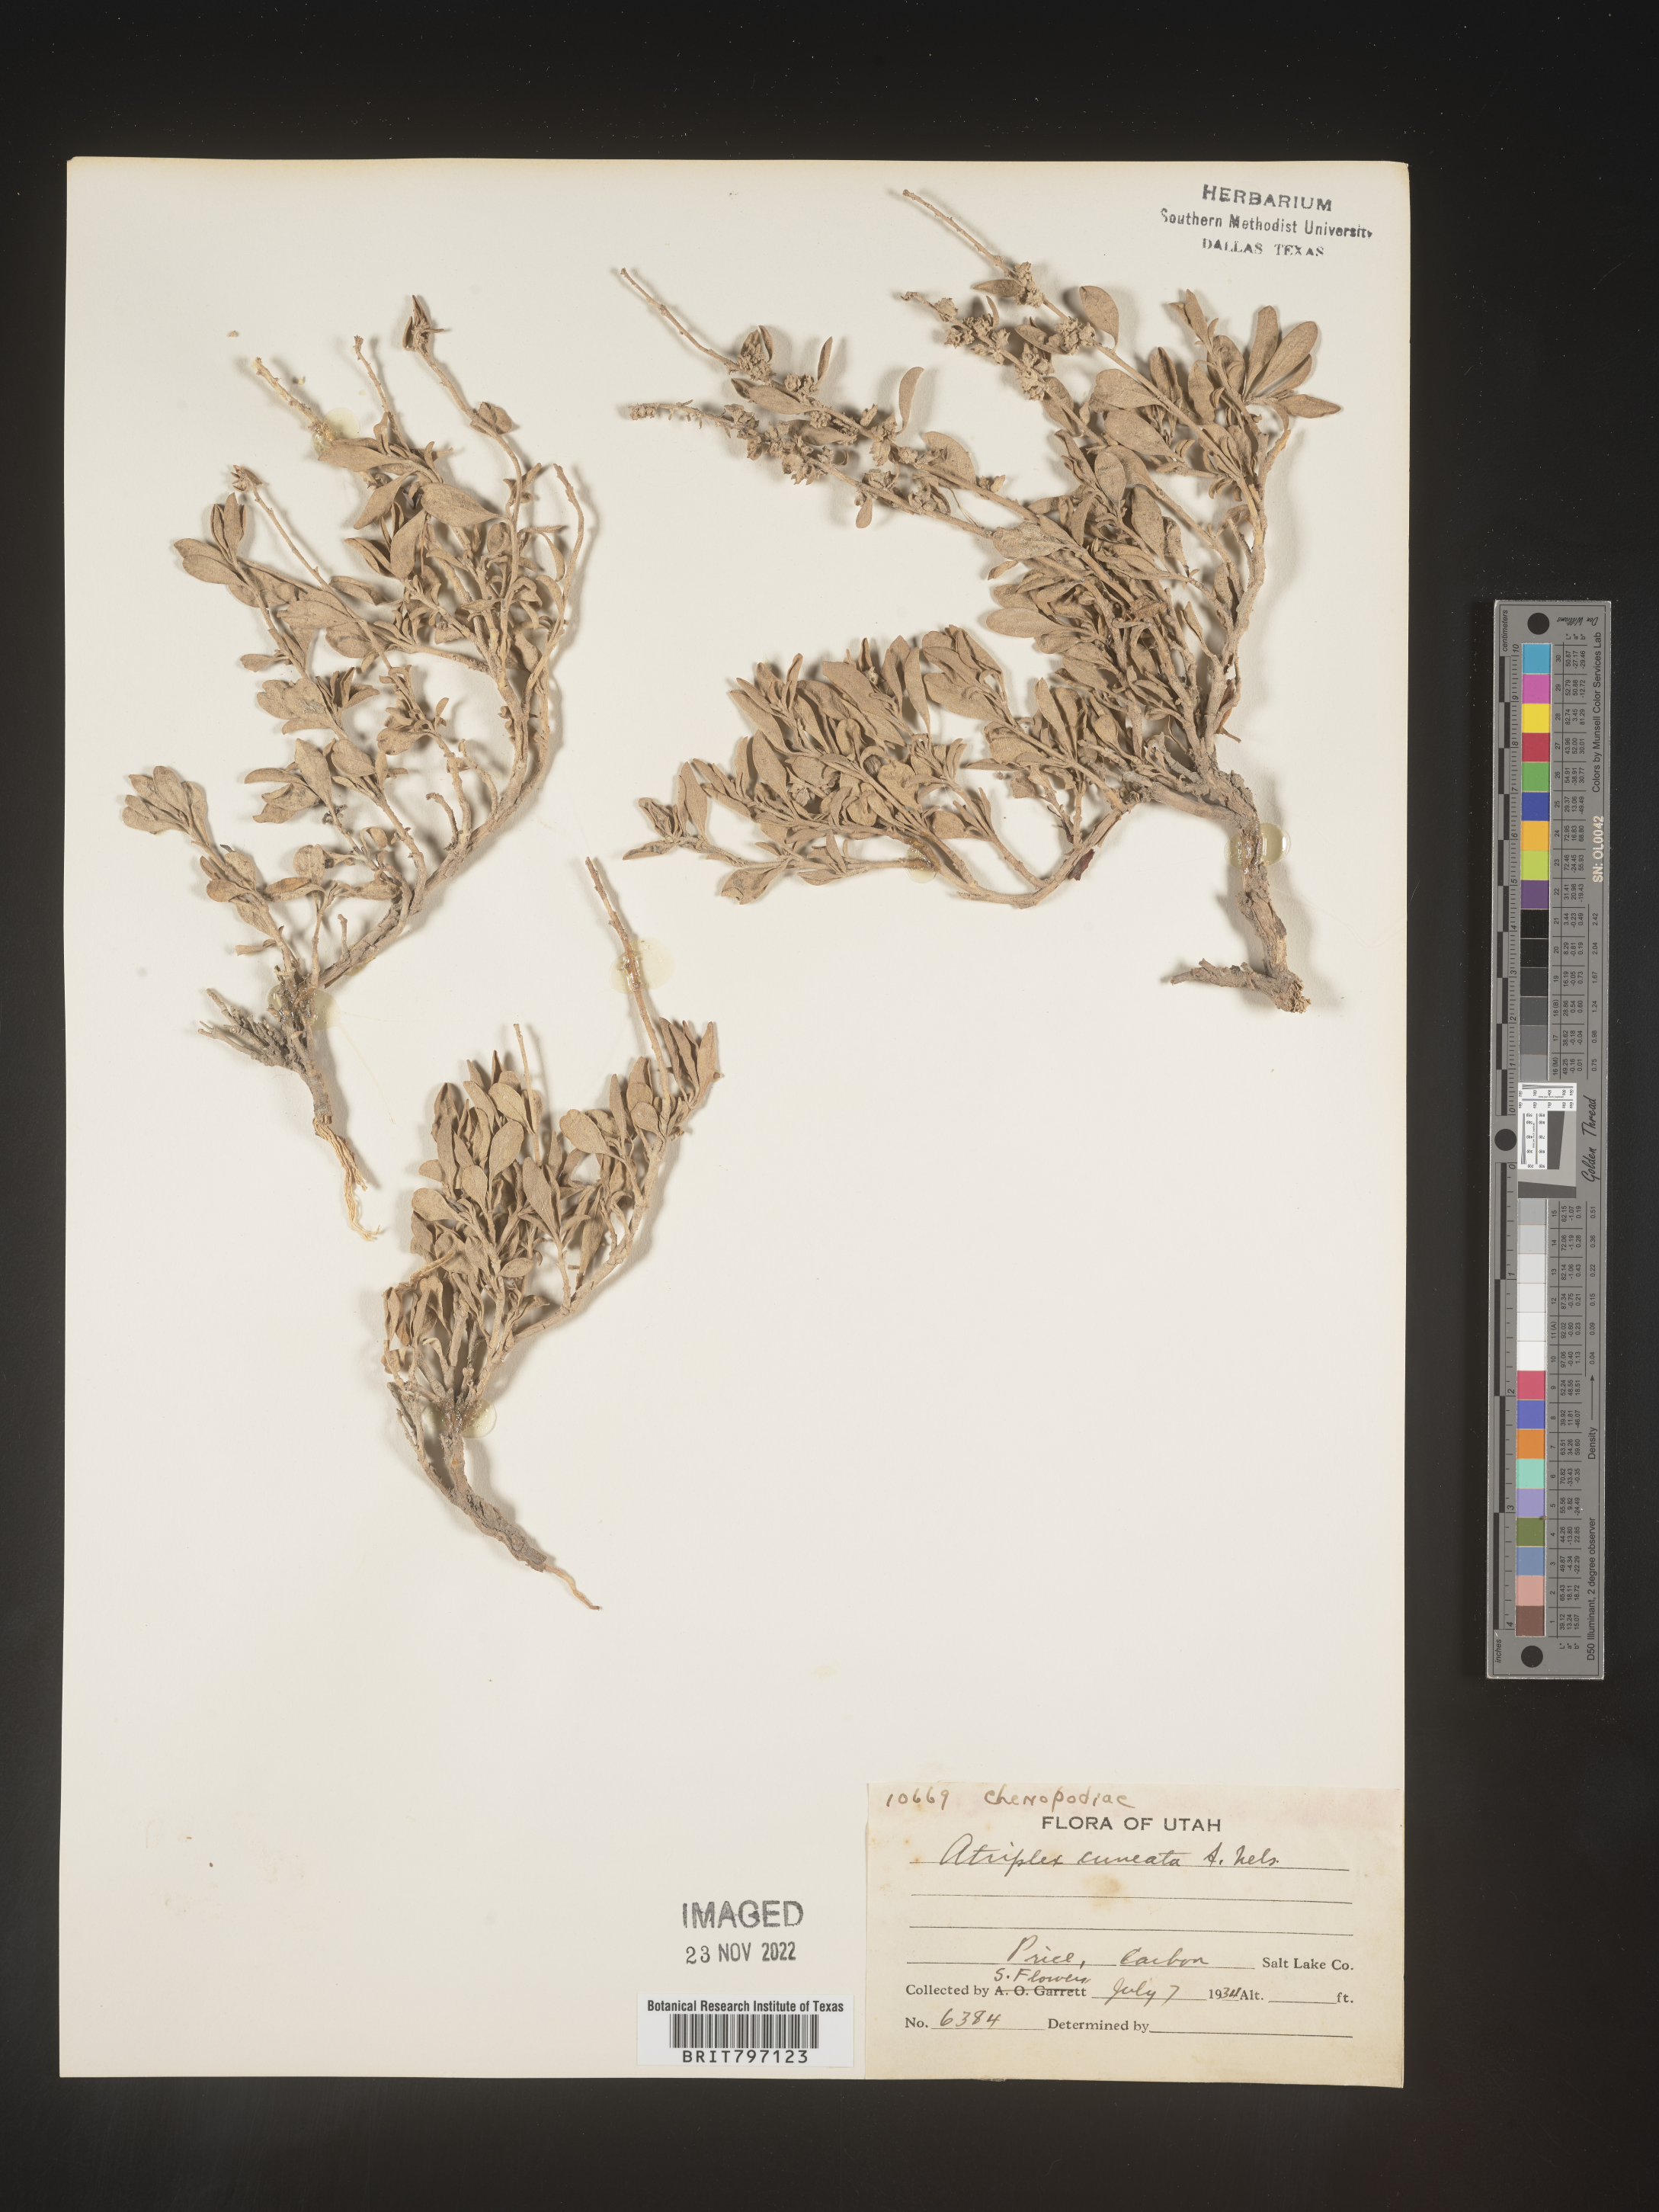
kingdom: Plantae
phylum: Tracheophyta
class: Magnoliopsida
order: Caryophyllales
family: Amaranthaceae
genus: Atriplex
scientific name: Atriplex
